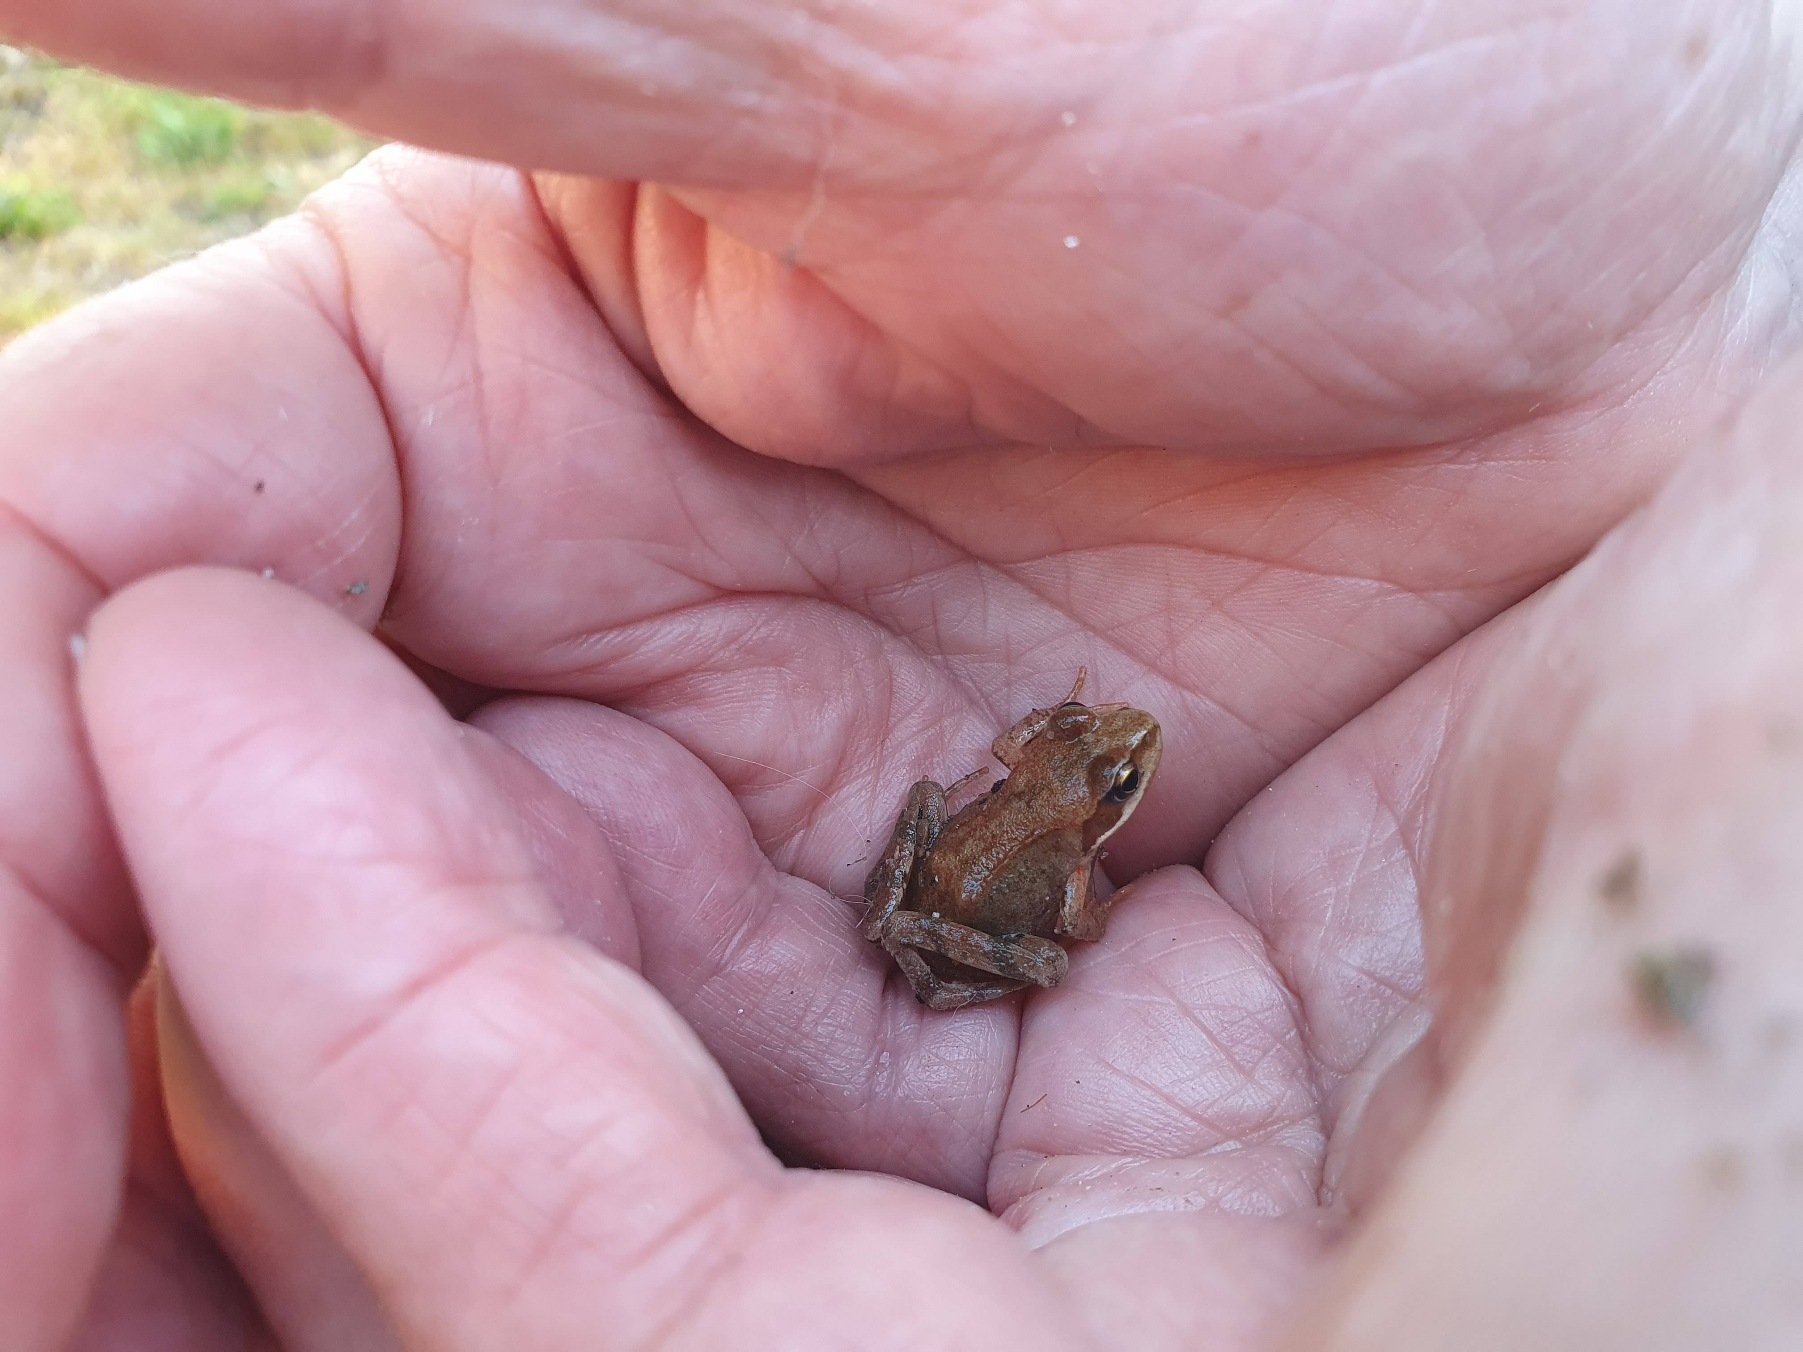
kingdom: Animalia
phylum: Chordata
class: Amphibia
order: Anura
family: Ranidae
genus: Rana
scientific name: Rana temporaria
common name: Butsnudet frø
